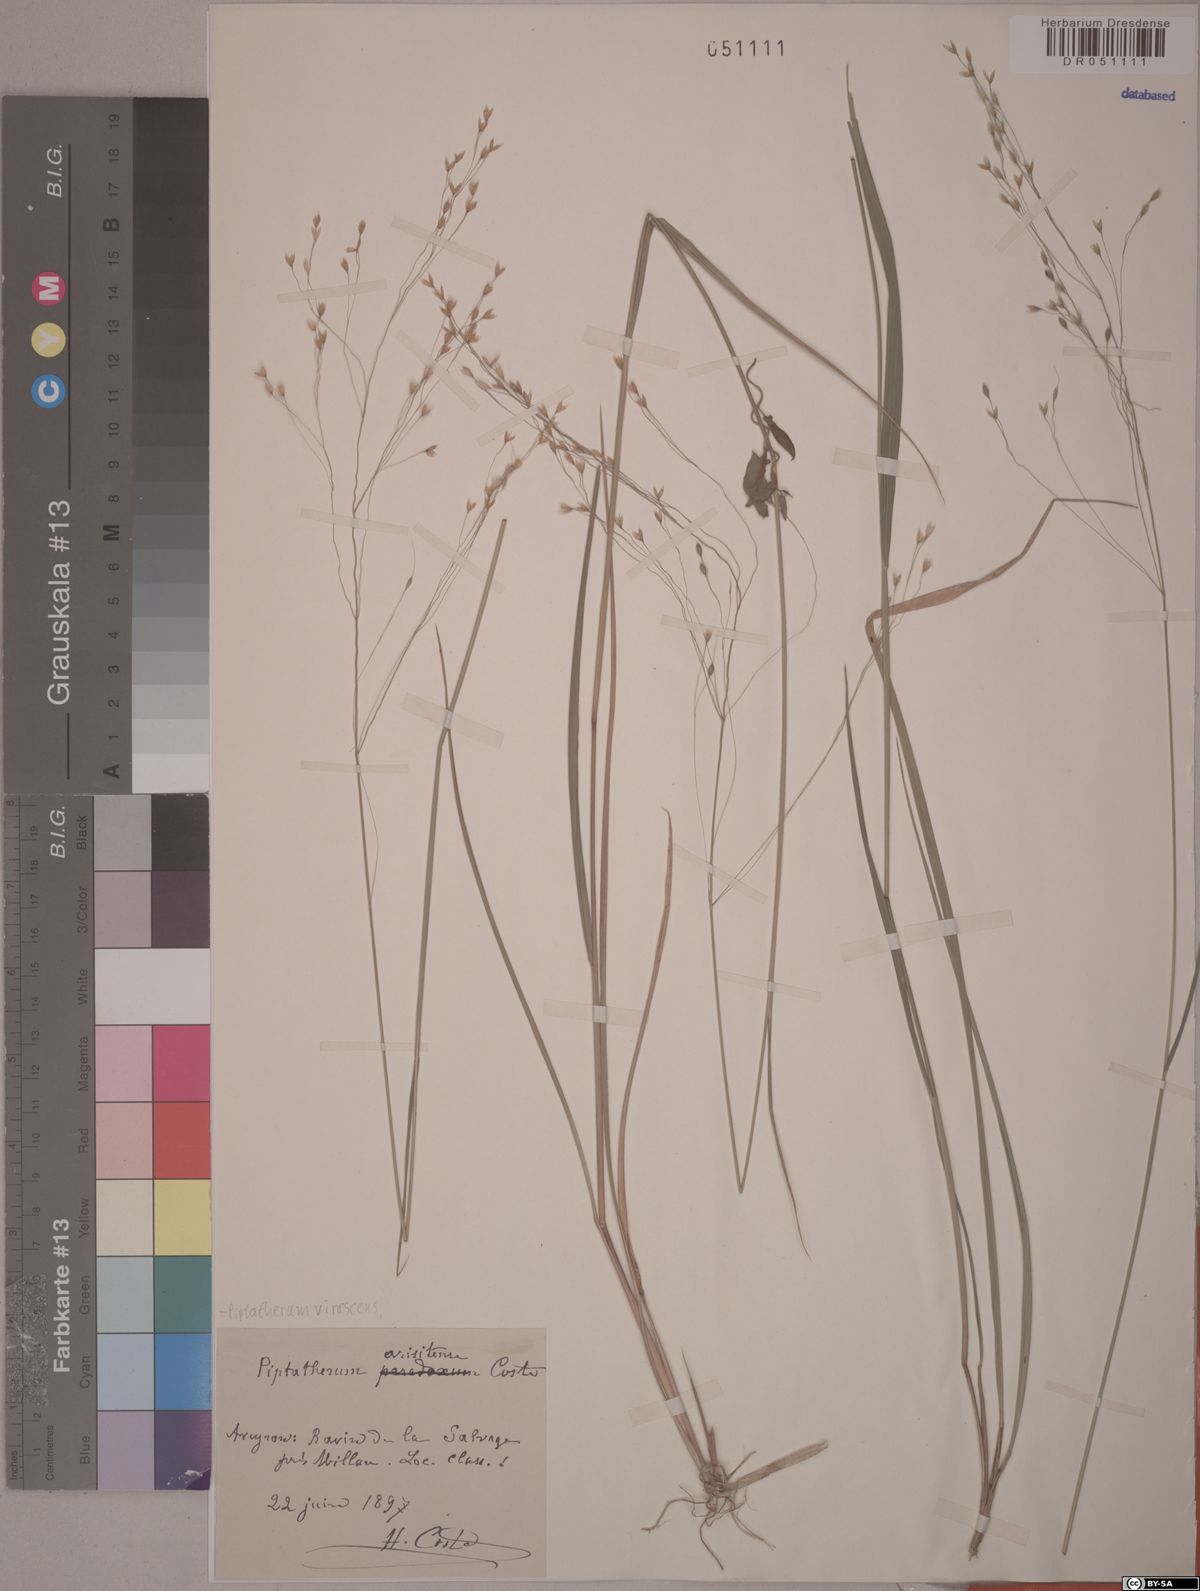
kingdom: Plantae
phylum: Tracheophyta
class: Liliopsida
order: Poales
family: Poaceae
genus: Achnatherum
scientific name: Achnatherum virescens
